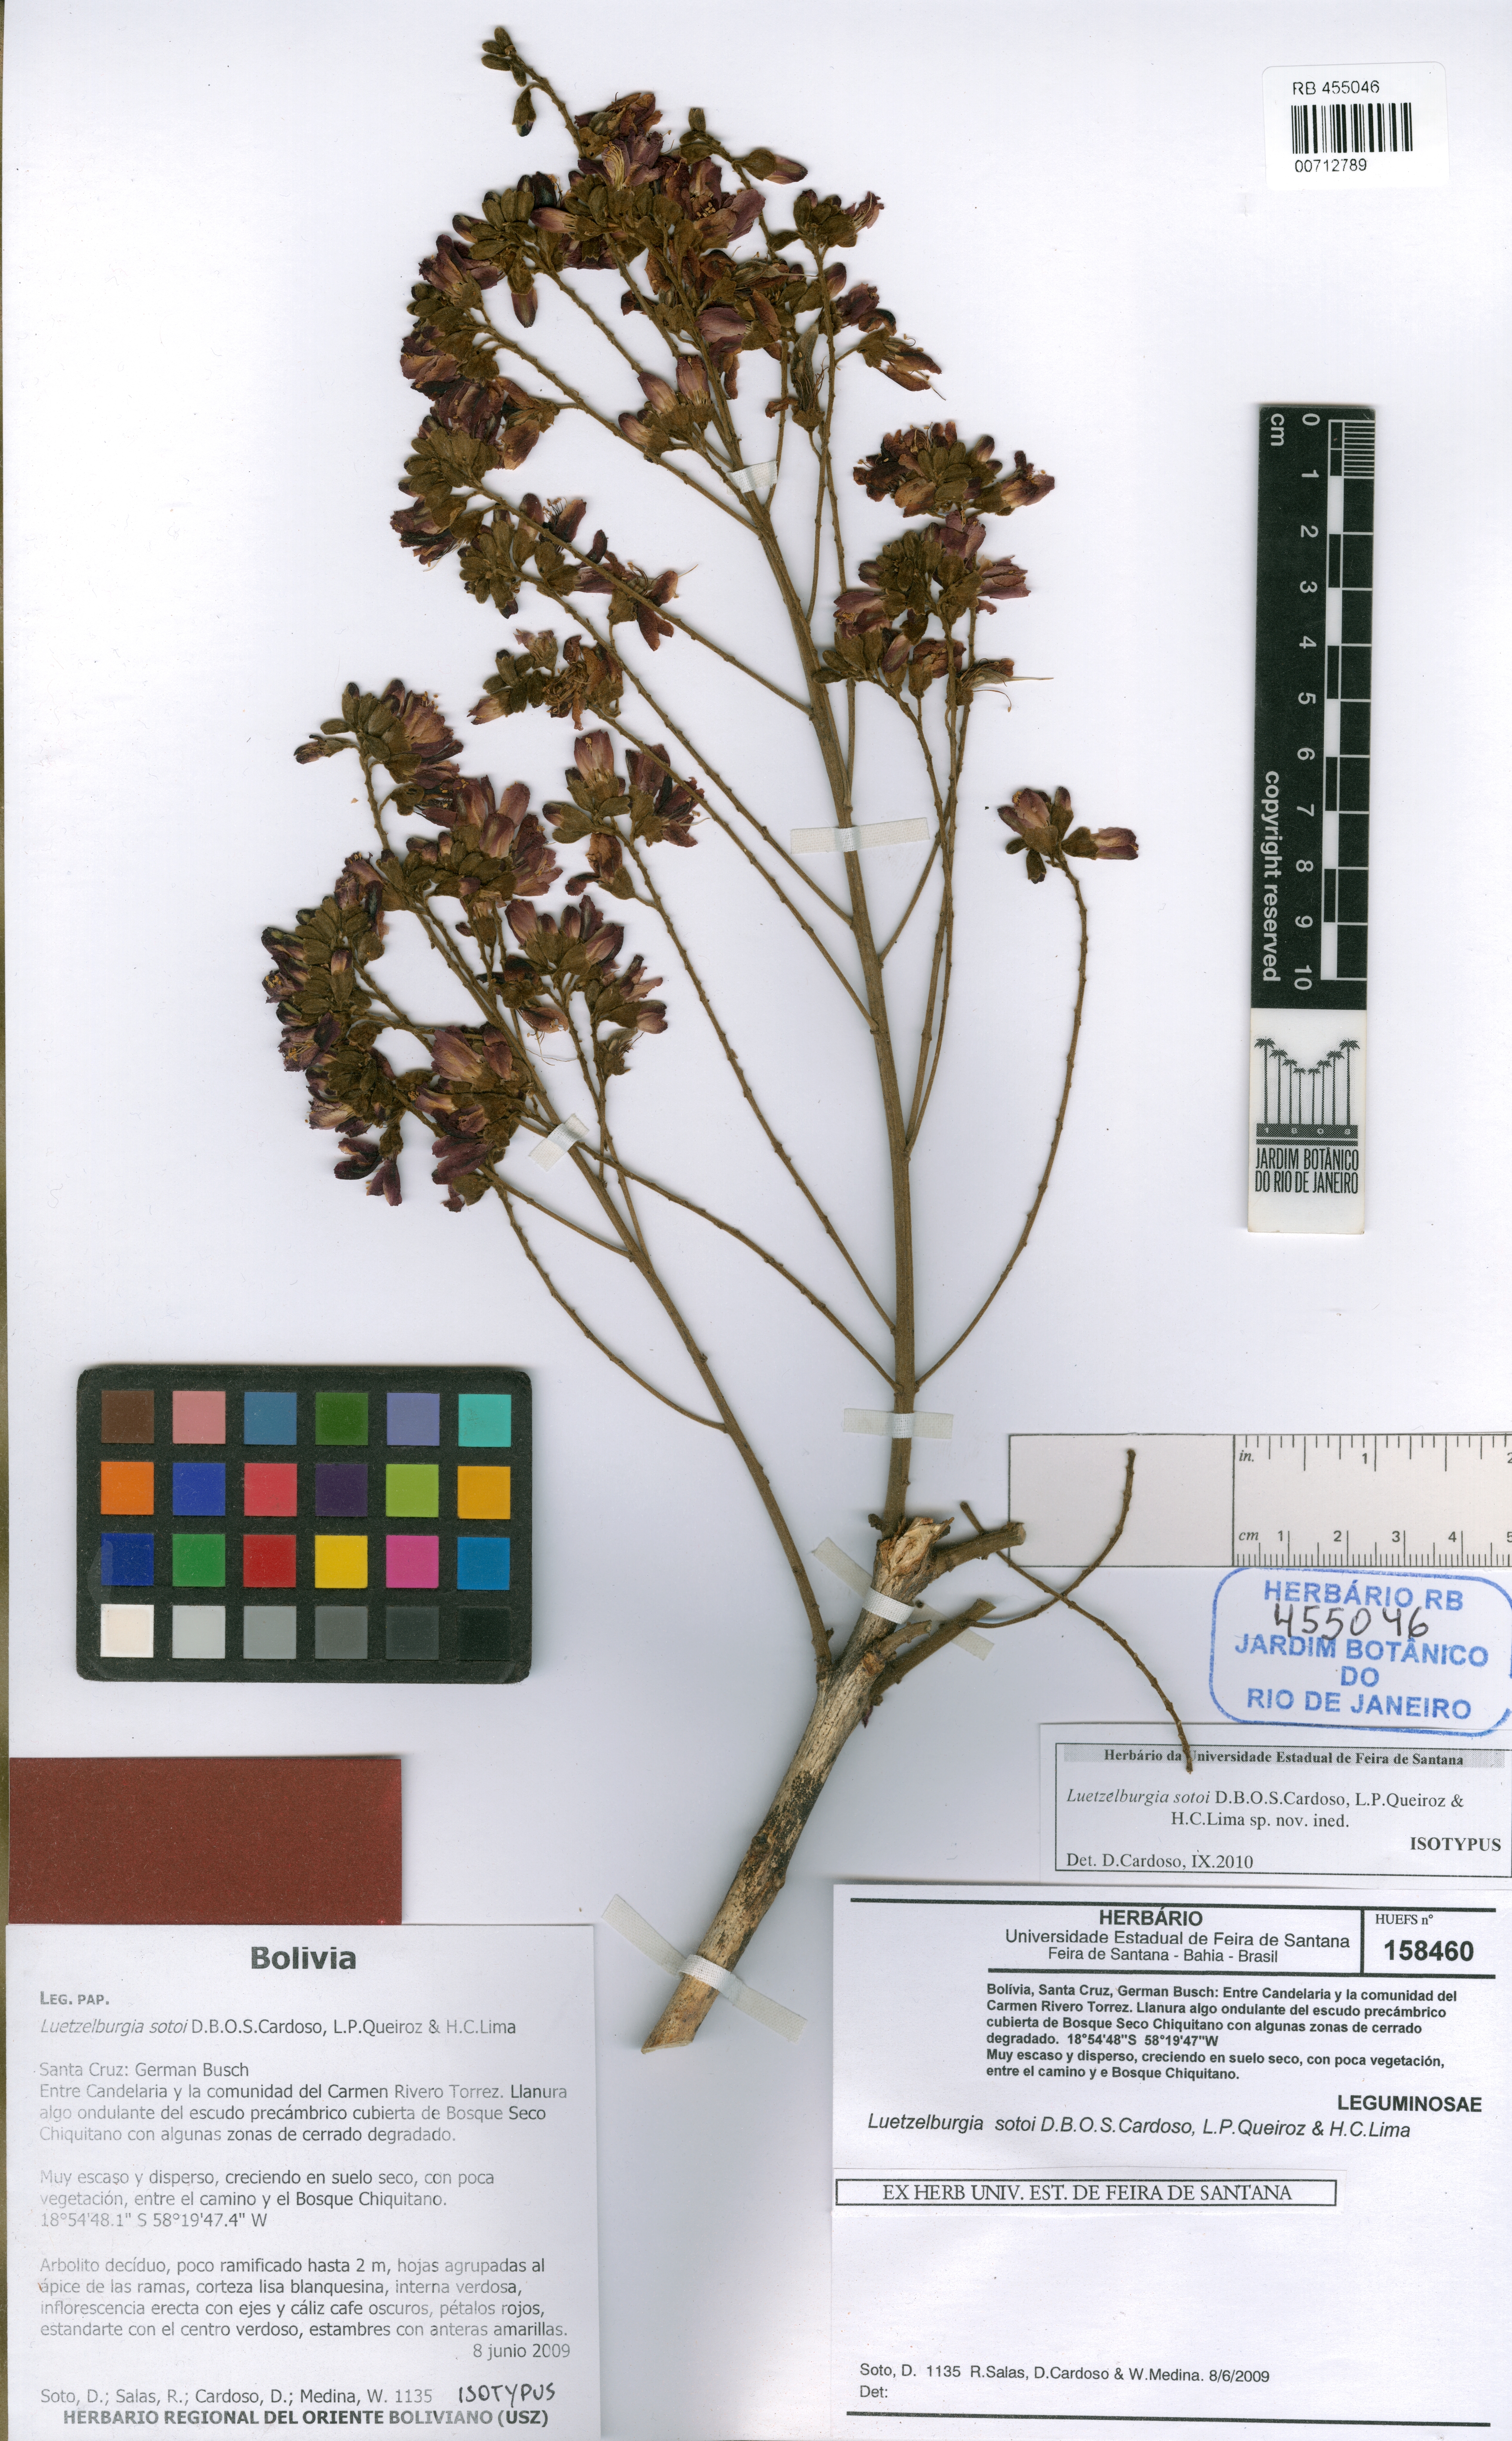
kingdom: Plantae
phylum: Tracheophyta
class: Magnoliopsida
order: Fabales
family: Fabaceae
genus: Luetzelburgia
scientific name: Luetzelburgia sotoi
